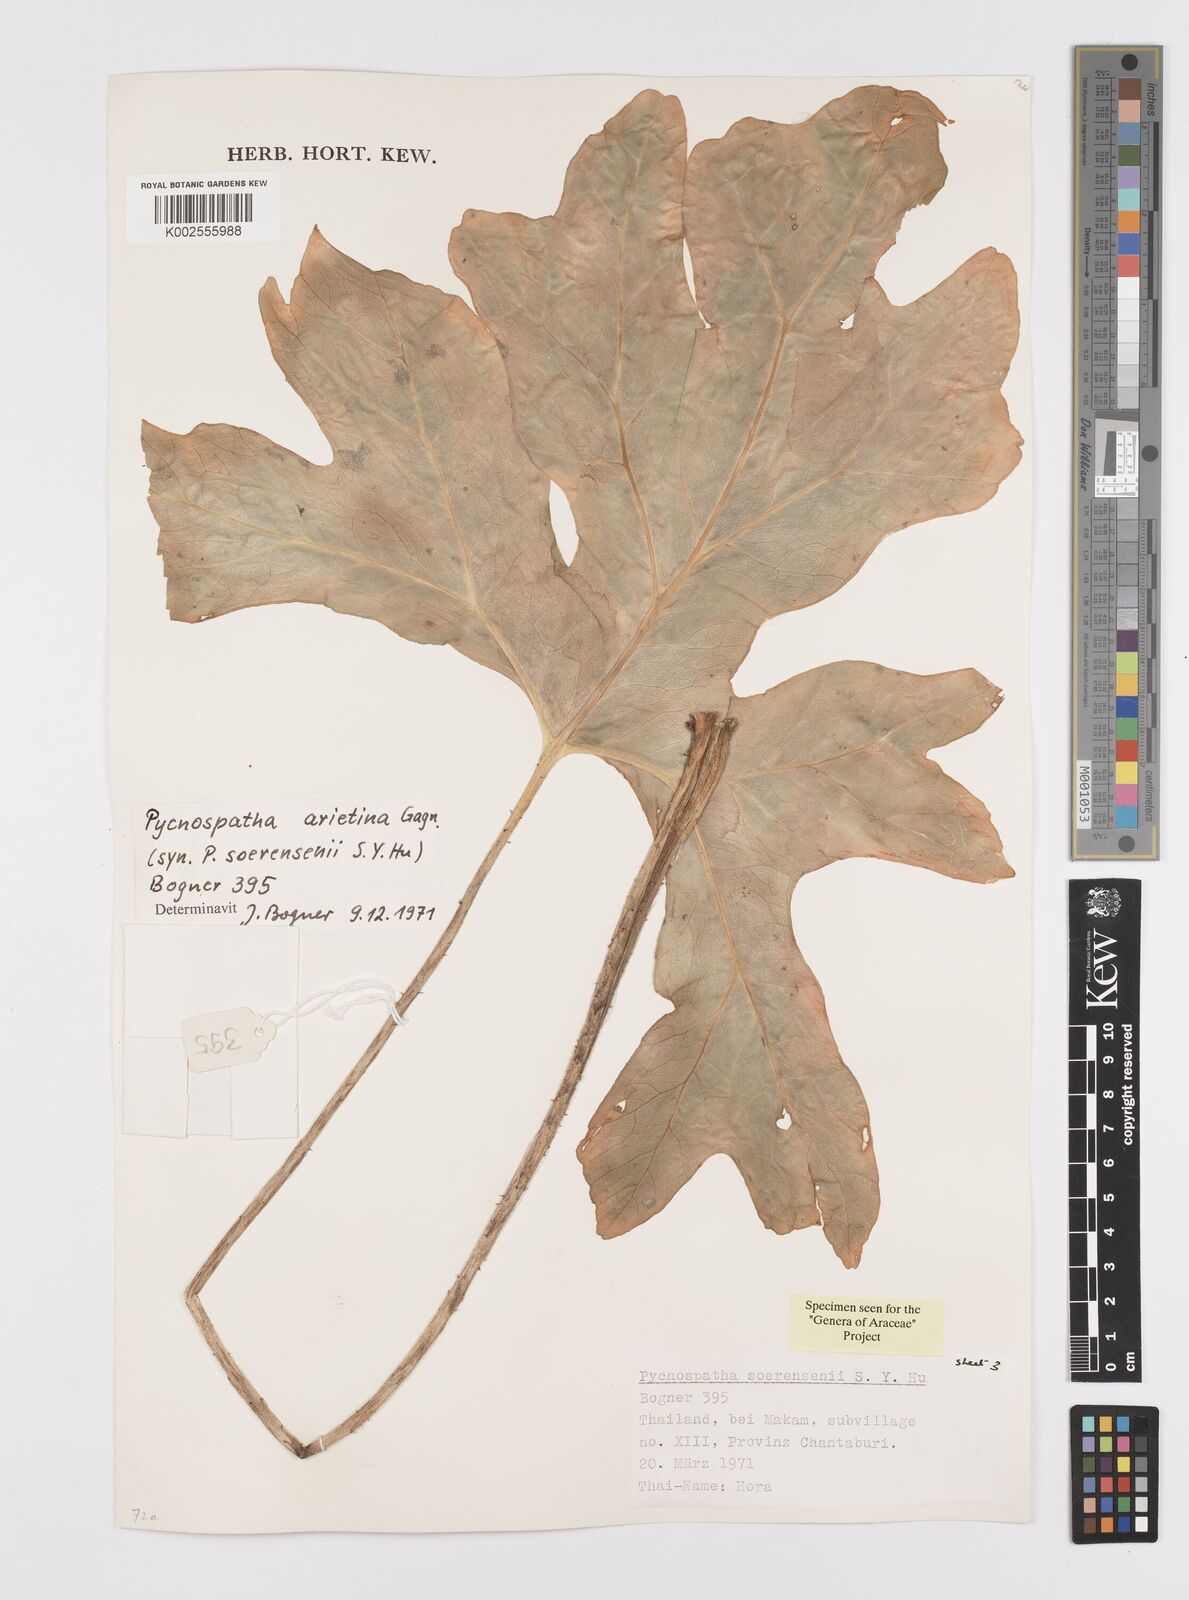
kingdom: Plantae
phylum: Tracheophyta
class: Liliopsida
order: Alismatales
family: Araceae
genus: Pycnospatha
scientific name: Pycnospatha arietina
